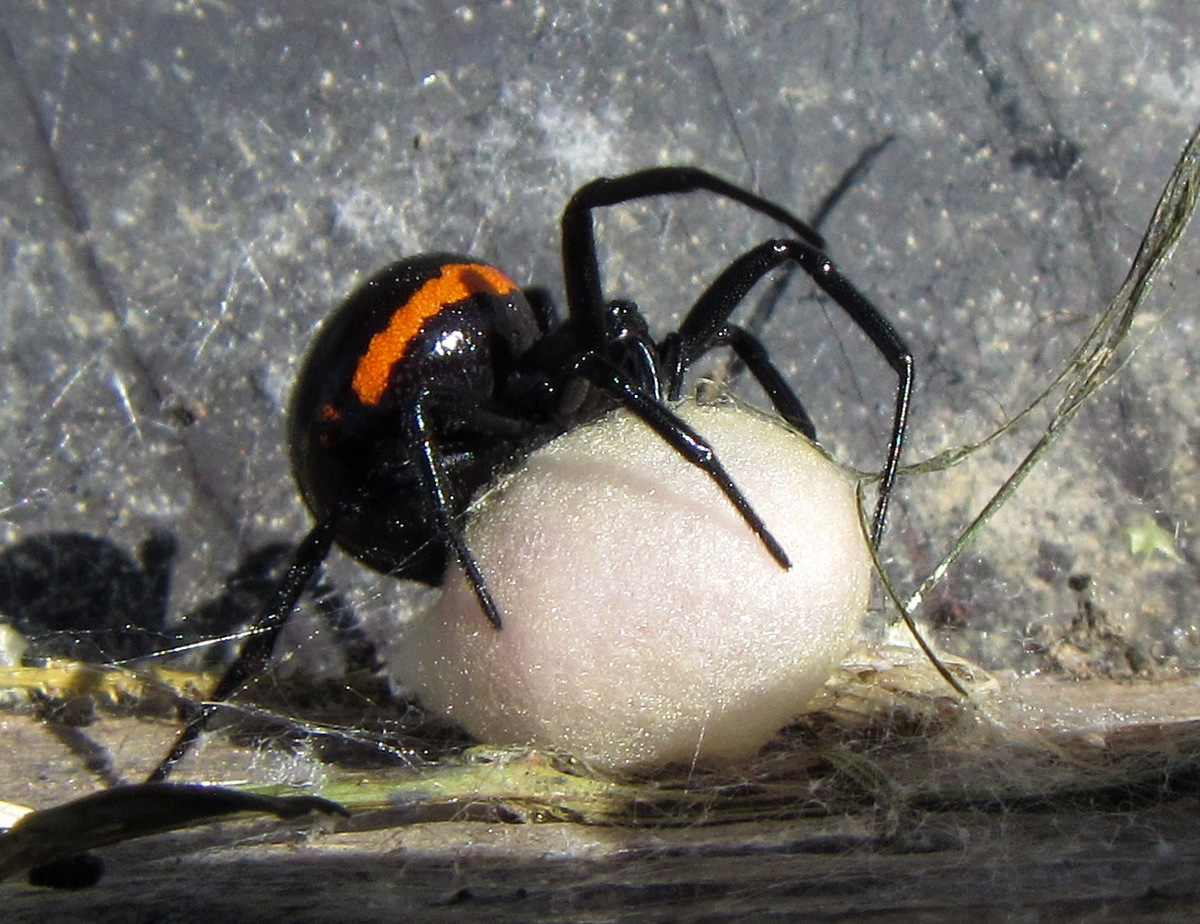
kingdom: Animalia
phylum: Arthropoda
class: Arachnida
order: Araneae
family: Theridiidae
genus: Steatoda
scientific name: Steatoda paykulliana
